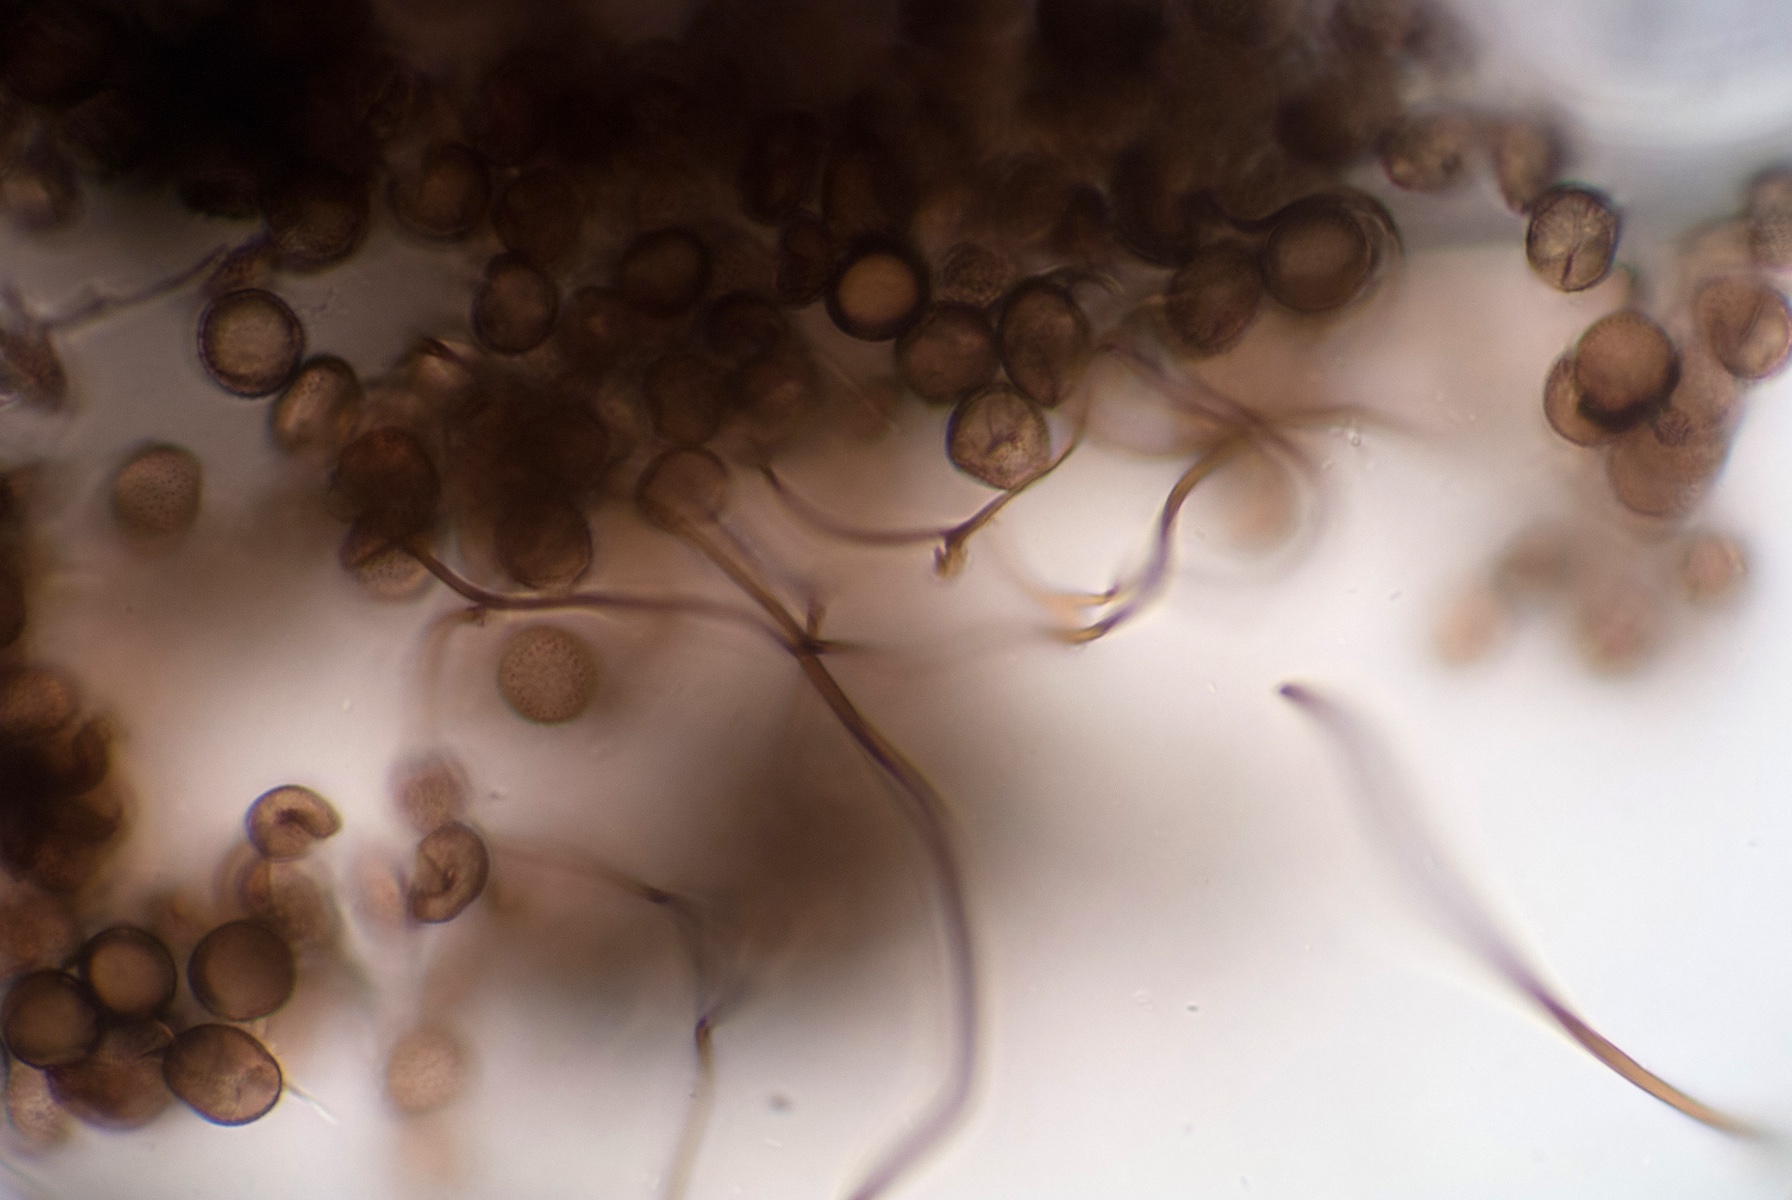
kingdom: Protozoa
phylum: Mycetozoa
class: Myxomycetes
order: Stemonitidales
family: Stemonitidaceae
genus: Comatricha
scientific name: Comatricha
